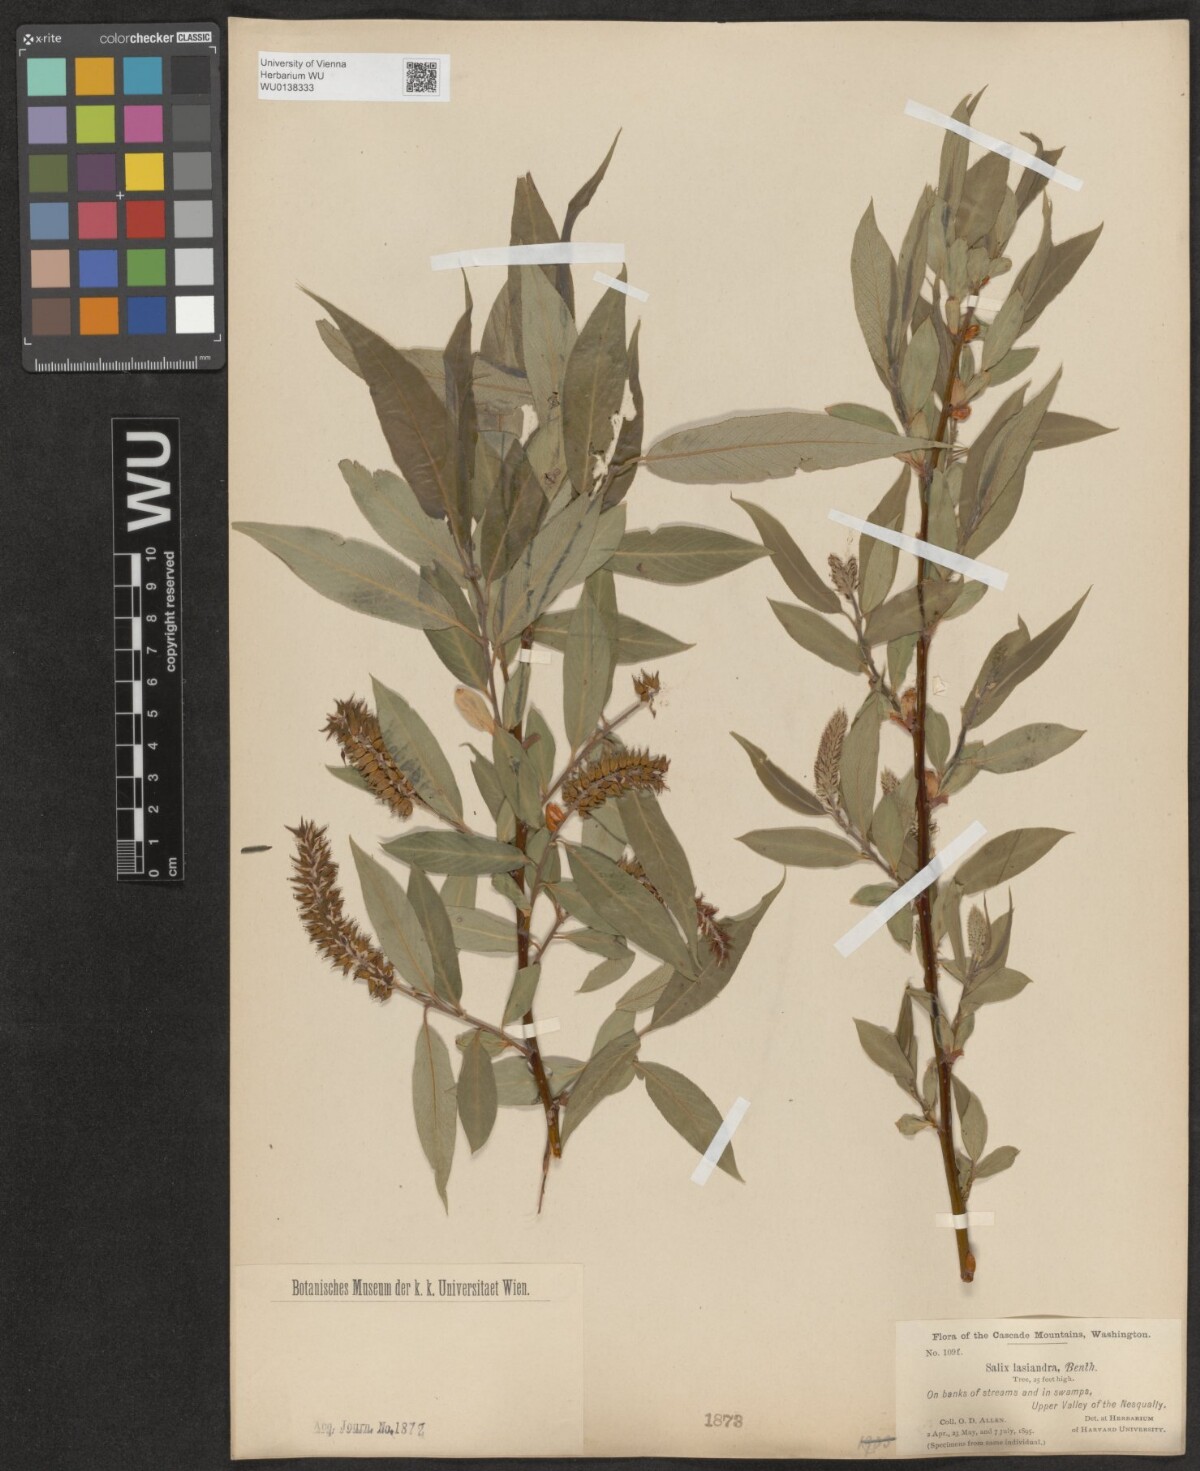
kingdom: Plantae
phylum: Tracheophyta
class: Magnoliopsida
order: Malpighiales
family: Salicaceae
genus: Salix
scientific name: Salix lucida
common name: Shining willow
